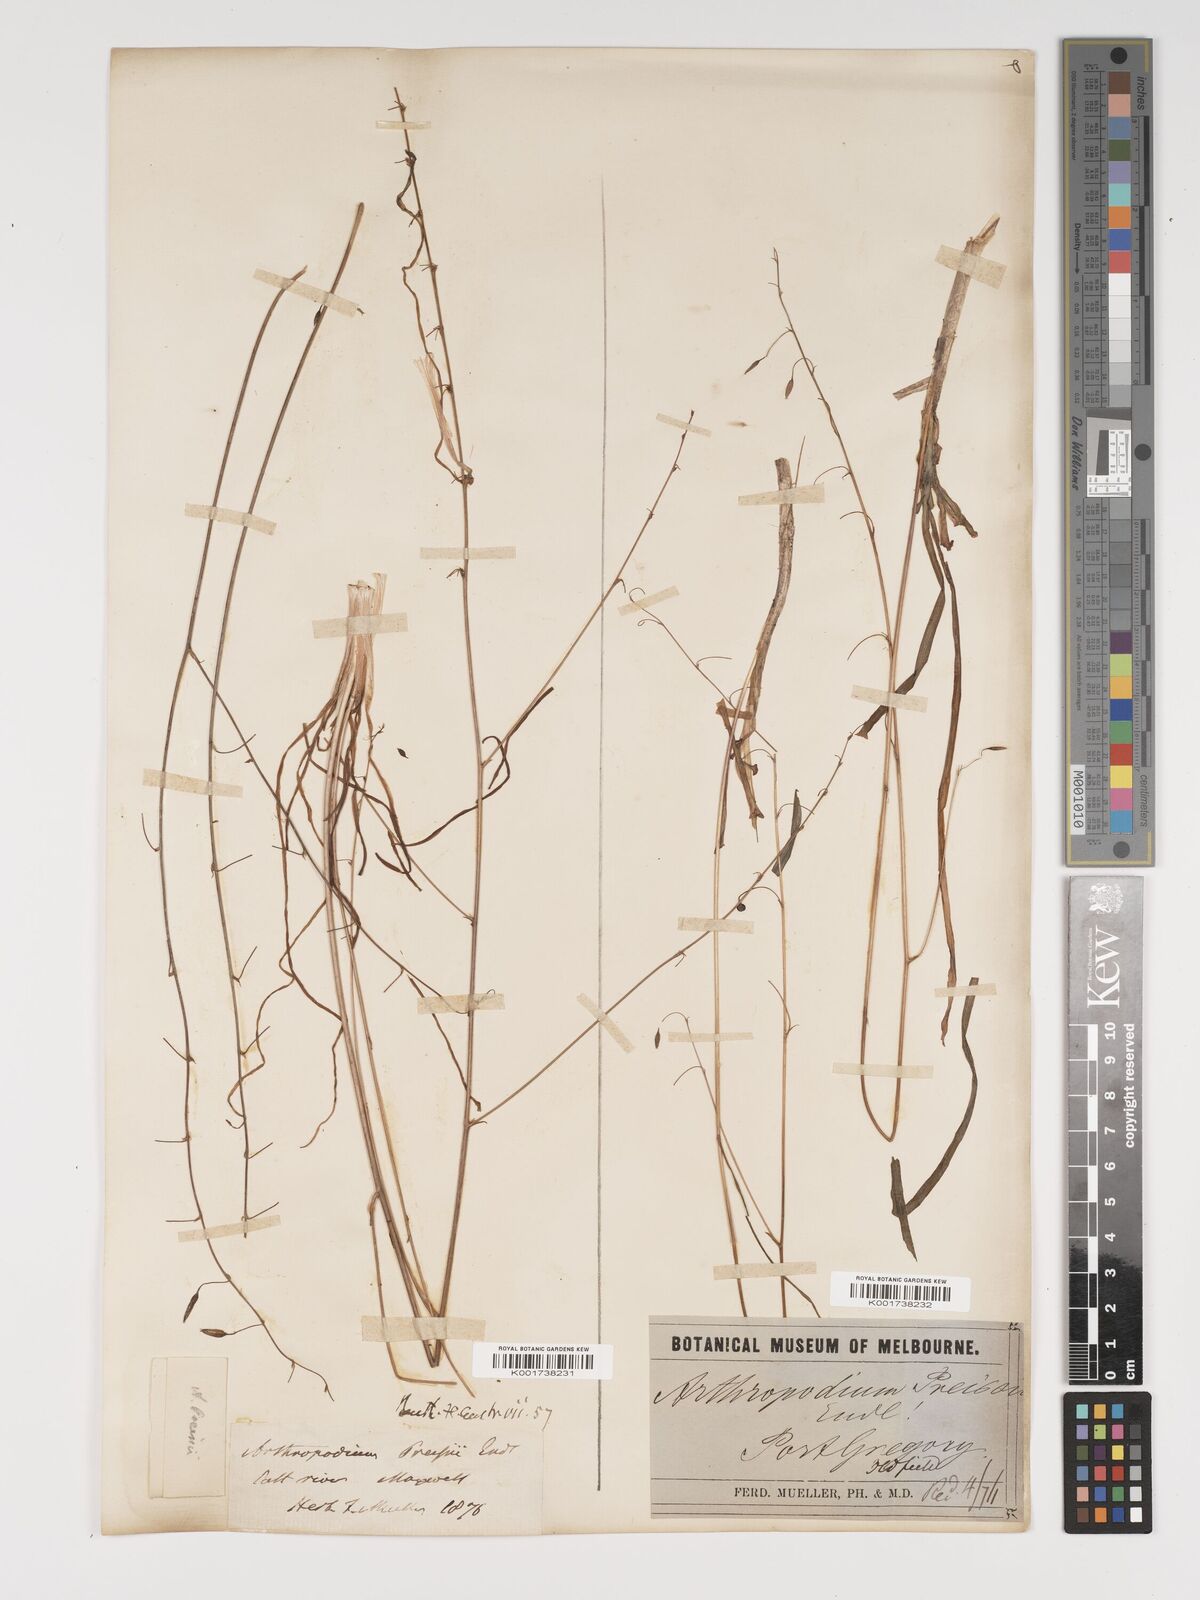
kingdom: Plantae
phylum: Tracheophyta
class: Liliopsida
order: Asparagales
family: Asparagaceae
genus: Dichopogon
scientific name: Dichopogon preissii
